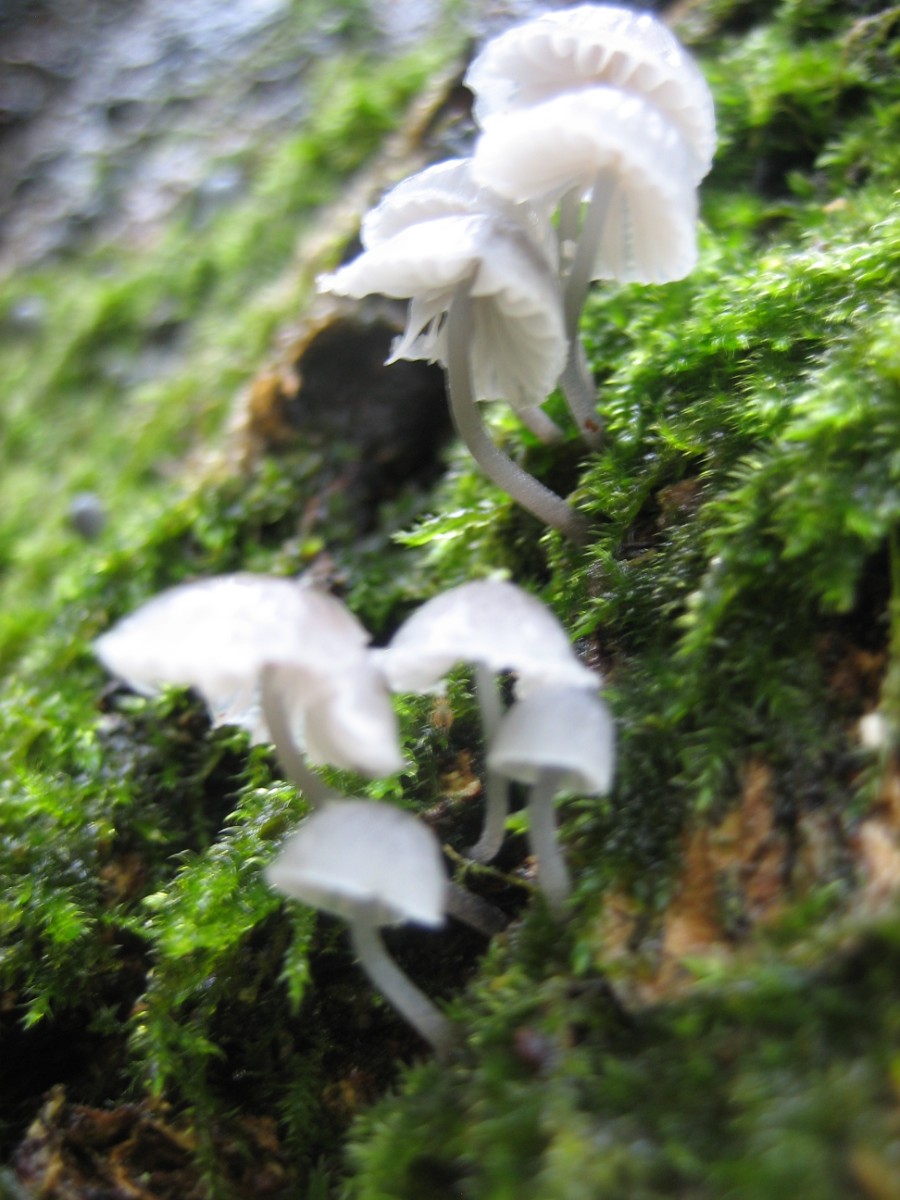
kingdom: Fungi
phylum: Basidiomycota
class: Agaricomycetes
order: Agaricales
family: Mycenaceae
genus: Mycena
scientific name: Mycena pseudocorticola
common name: gråblå bark-huesvamp
